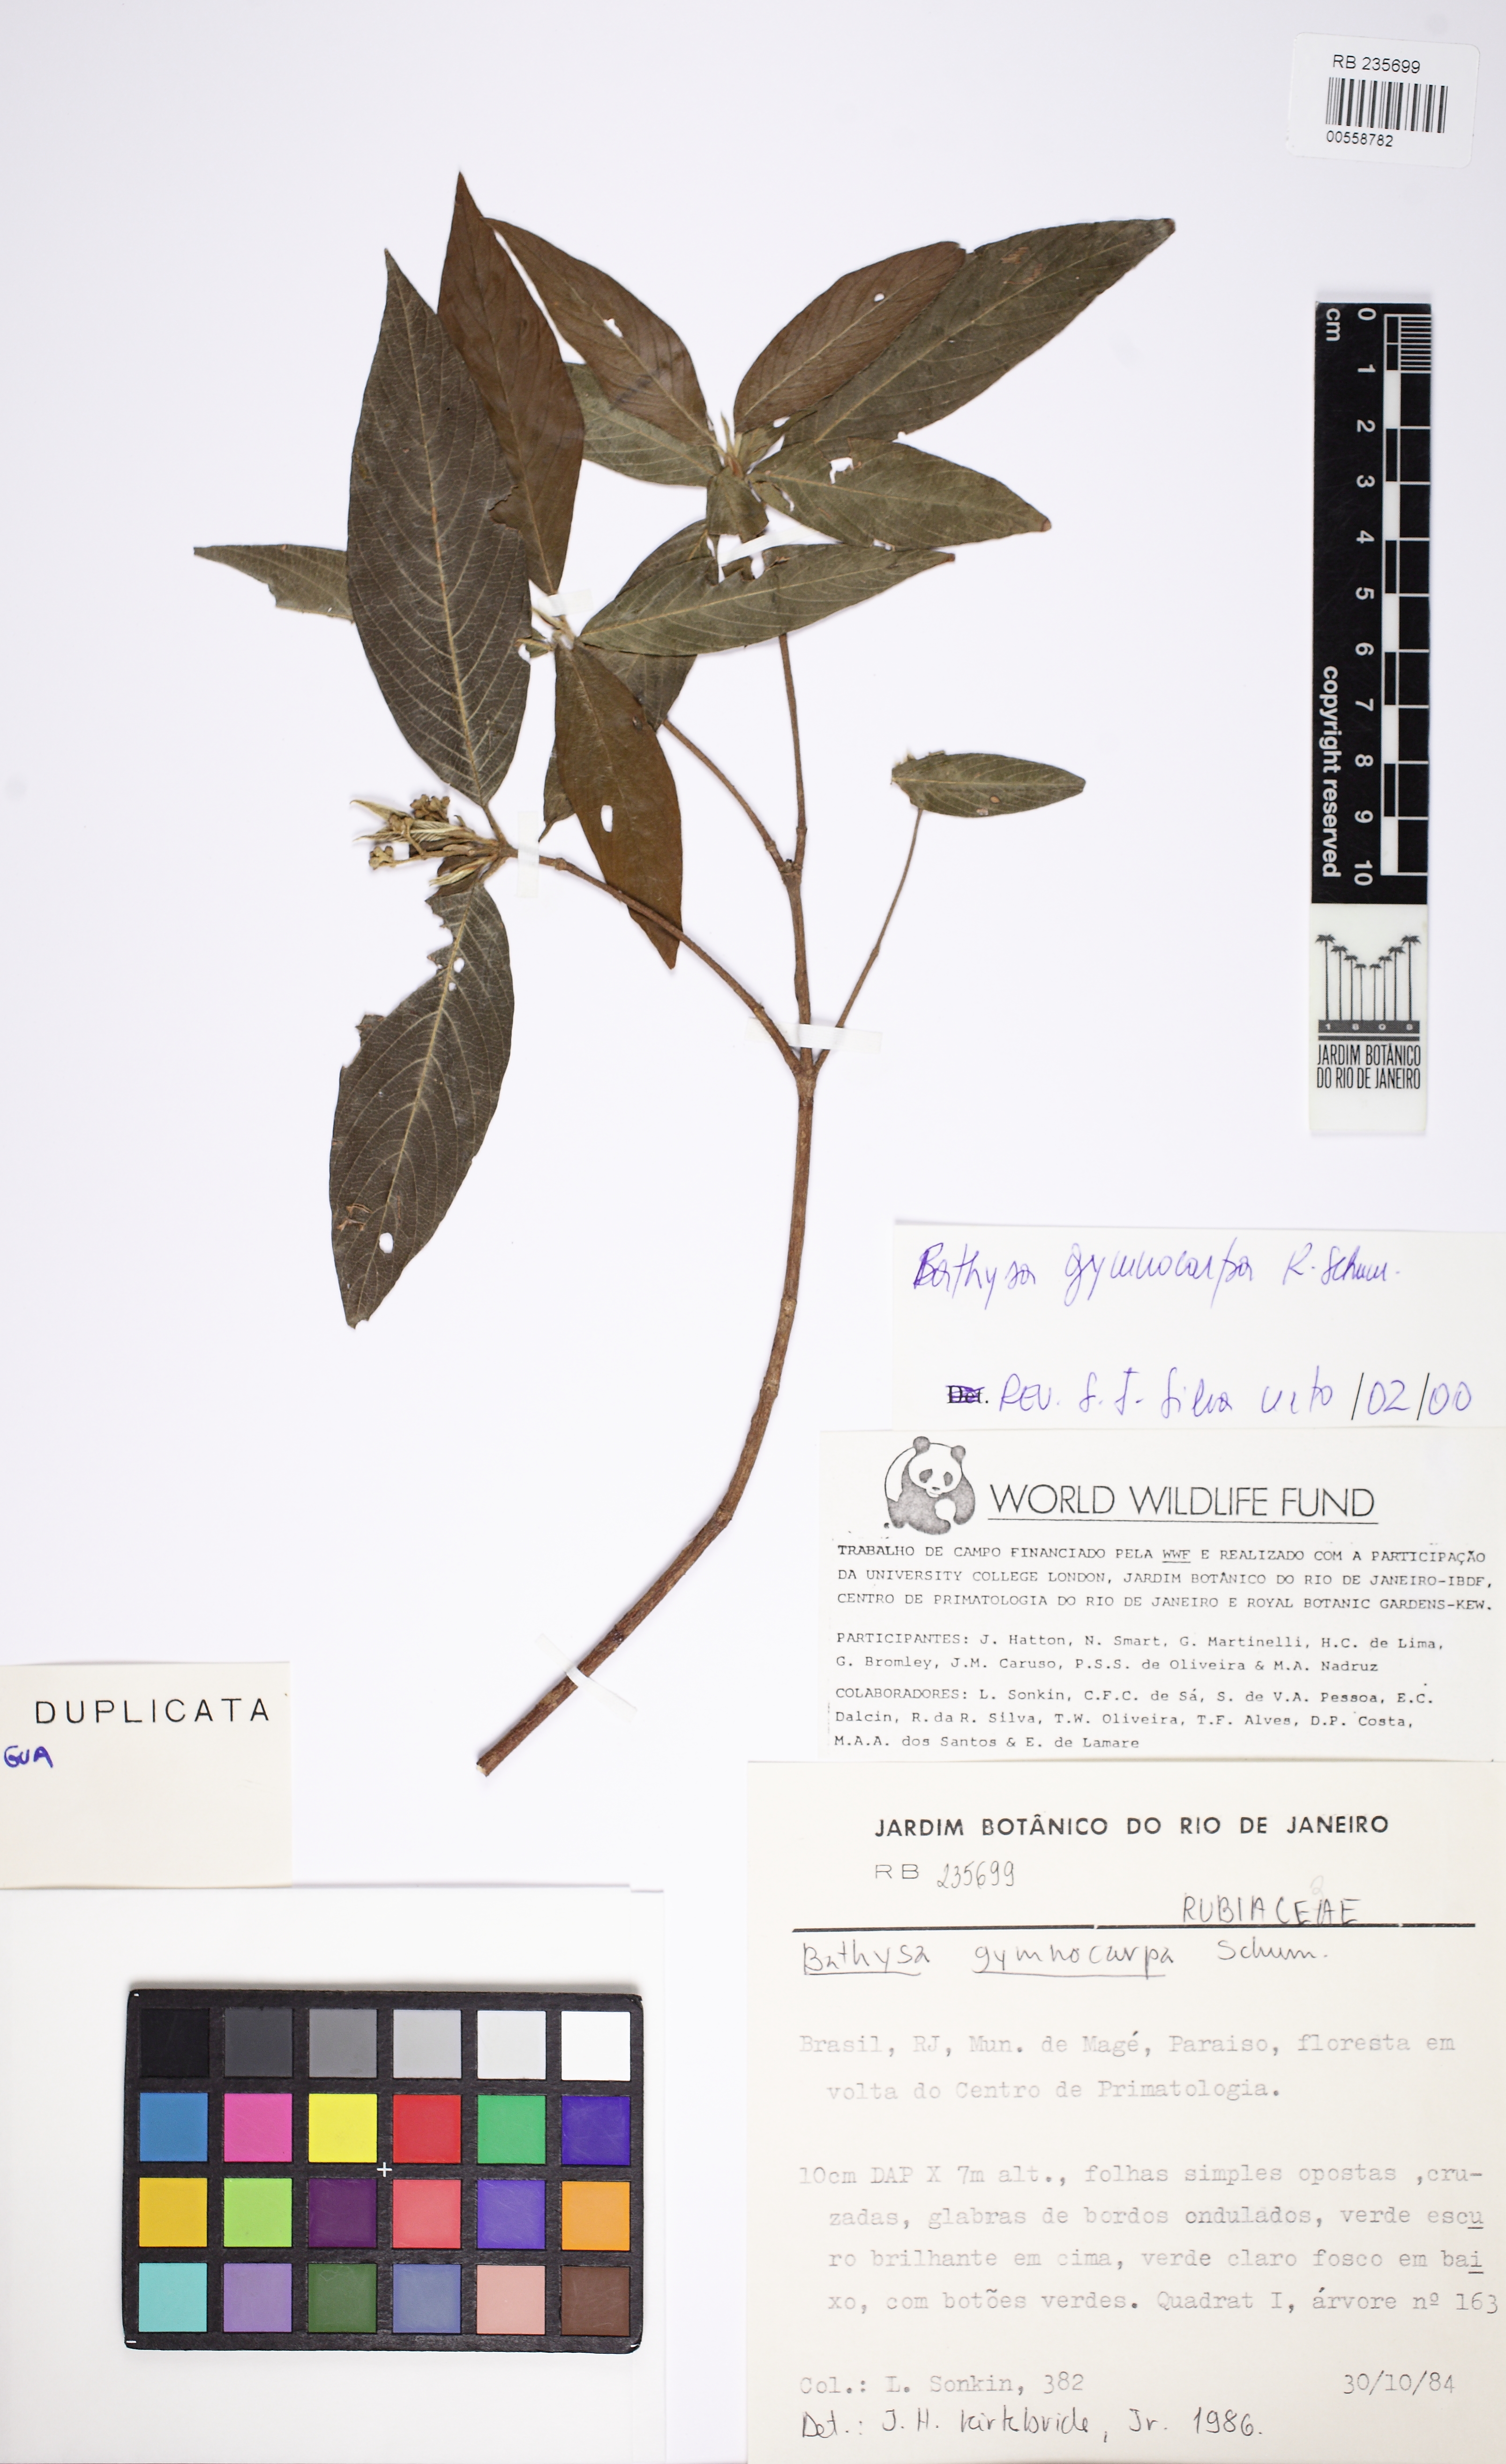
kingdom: Plantae
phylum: Tracheophyta
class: Magnoliopsida
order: Gentianales
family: Rubiaceae
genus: Bathysa
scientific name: Bathysa gymnocarpa
